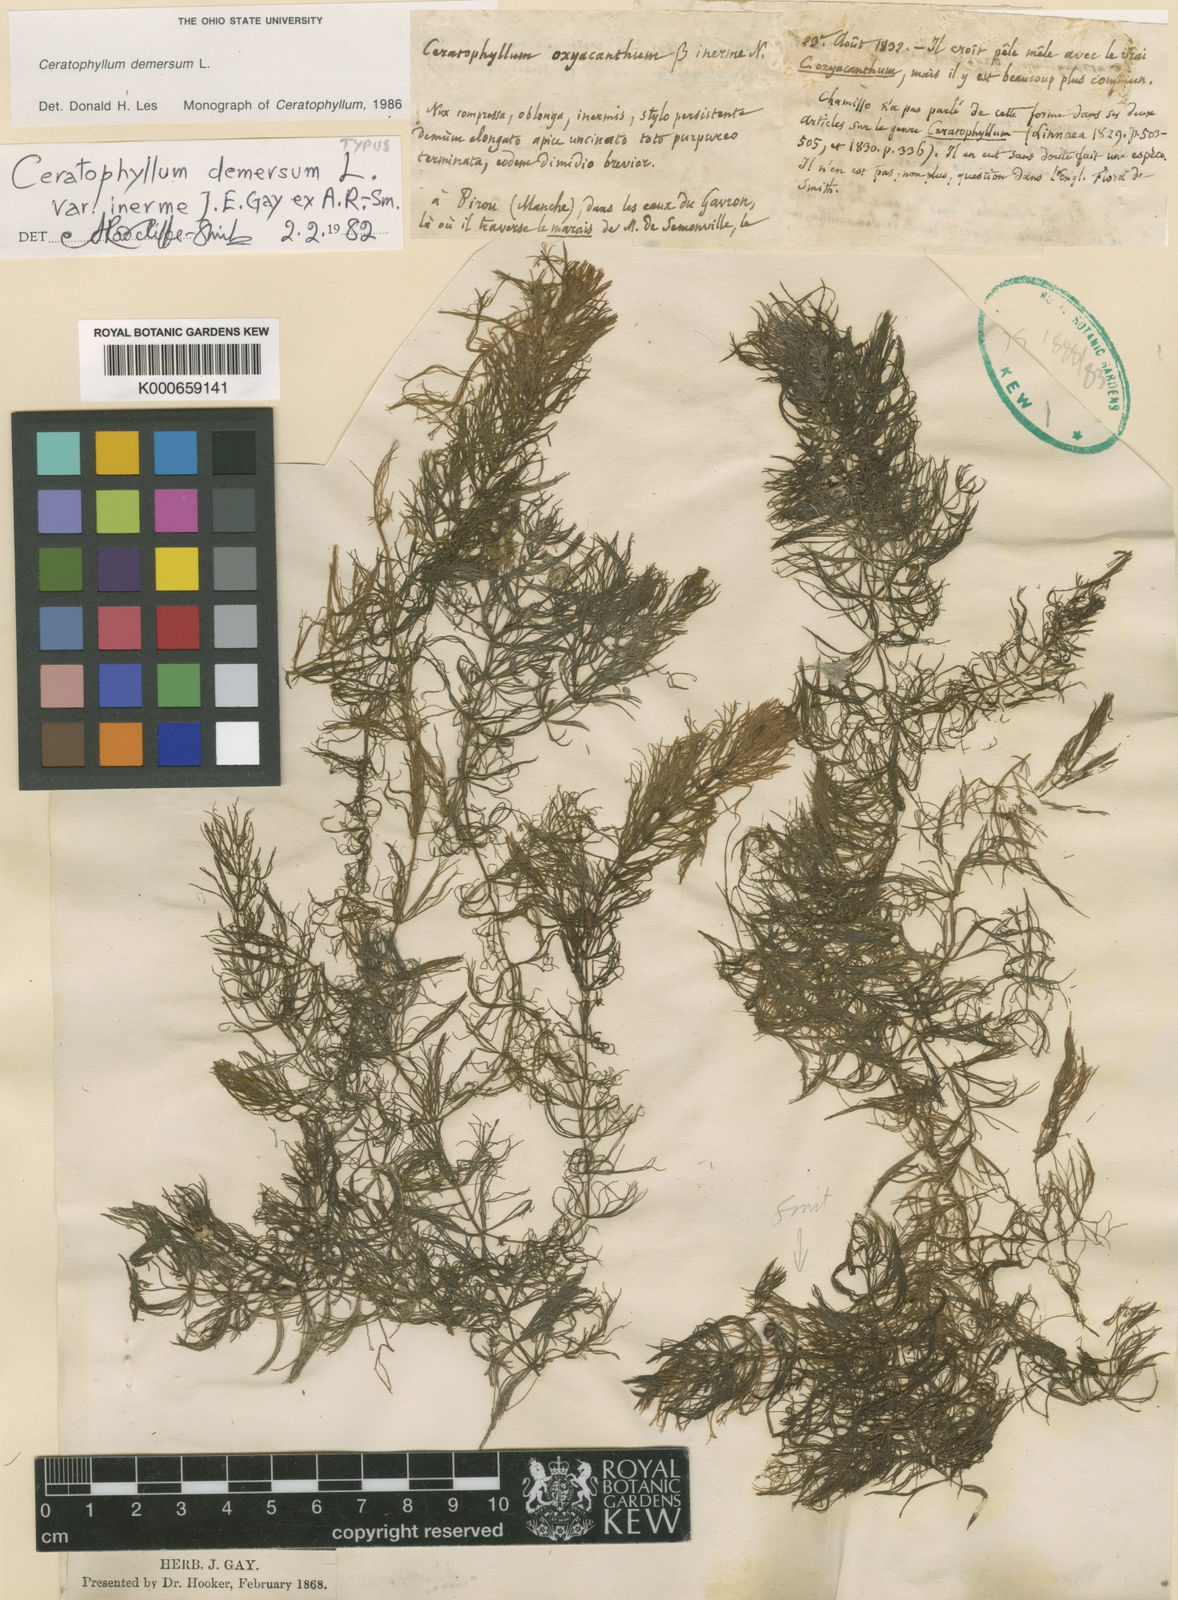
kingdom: Plantae
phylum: Tracheophyta
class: Magnoliopsida
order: Ceratophyllales
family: Ceratophyllaceae
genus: Ceratophyllum
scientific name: Ceratophyllum demersum
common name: Rigid hornwort
